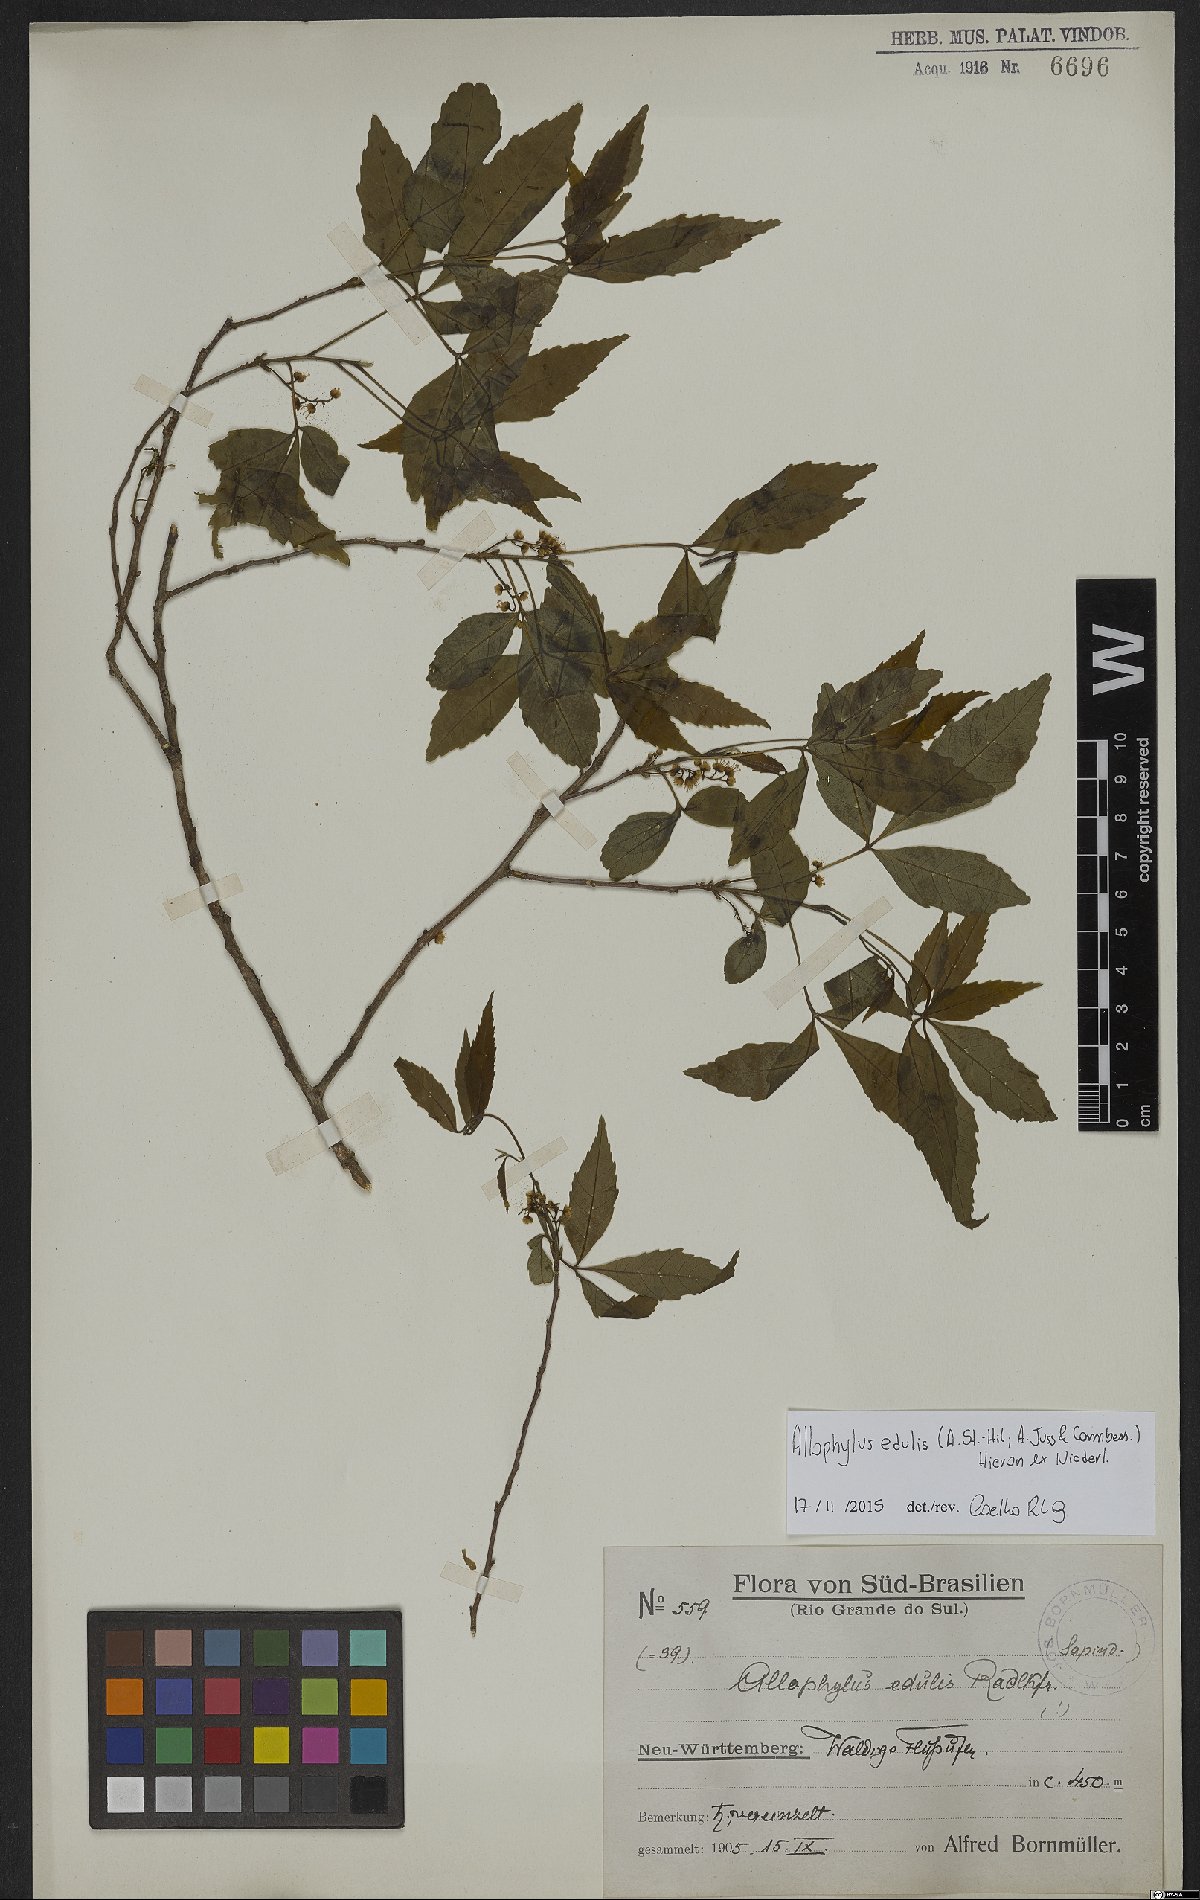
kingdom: Plantae
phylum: Tracheophyta
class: Magnoliopsida
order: Sapindales
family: Sapindaceae
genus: Allophylus
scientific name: Allophylus edulis
